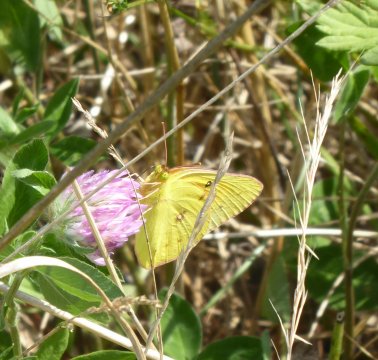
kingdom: Animalia
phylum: Arthropoda
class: Insecta
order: Lepidoptera
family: Pieridae
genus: Colias
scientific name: Colias eurytheme
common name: Orange Sulphur
